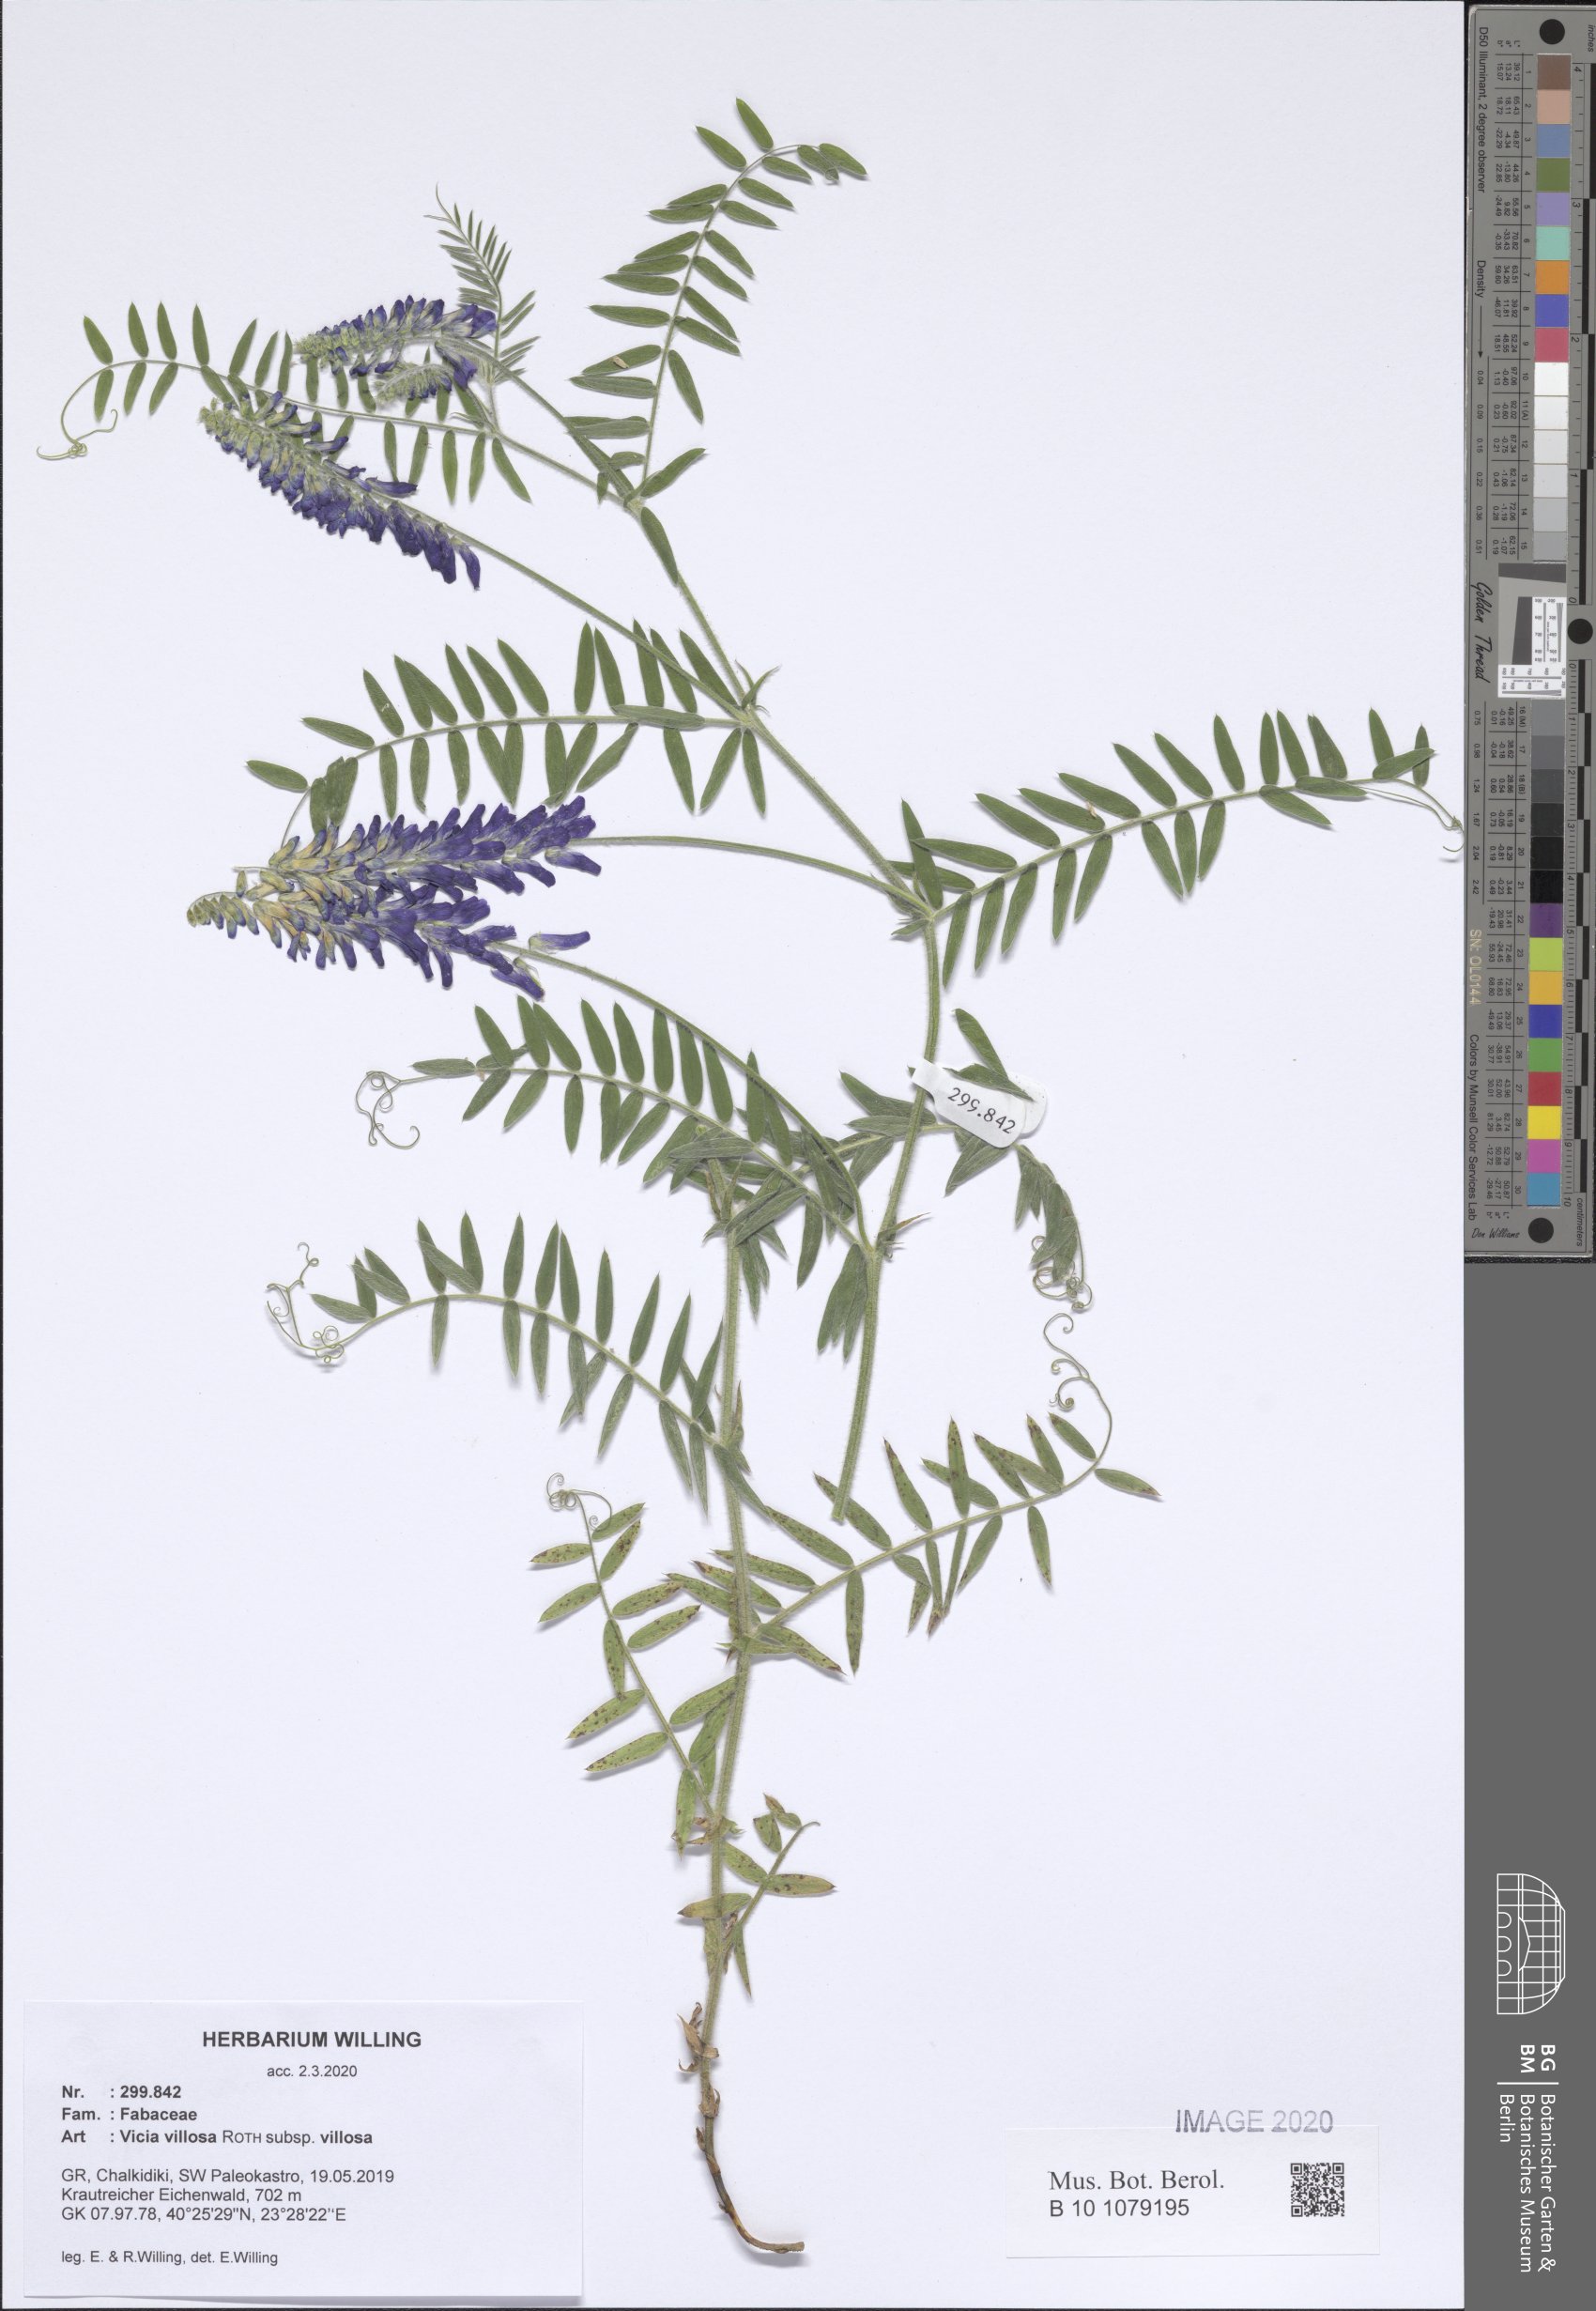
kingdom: Plantae
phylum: Tracheophyta
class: Magnoliopsida
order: Fabales
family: Fabaceae
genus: Vicia
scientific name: Vicia villosa
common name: Fodder vetch
